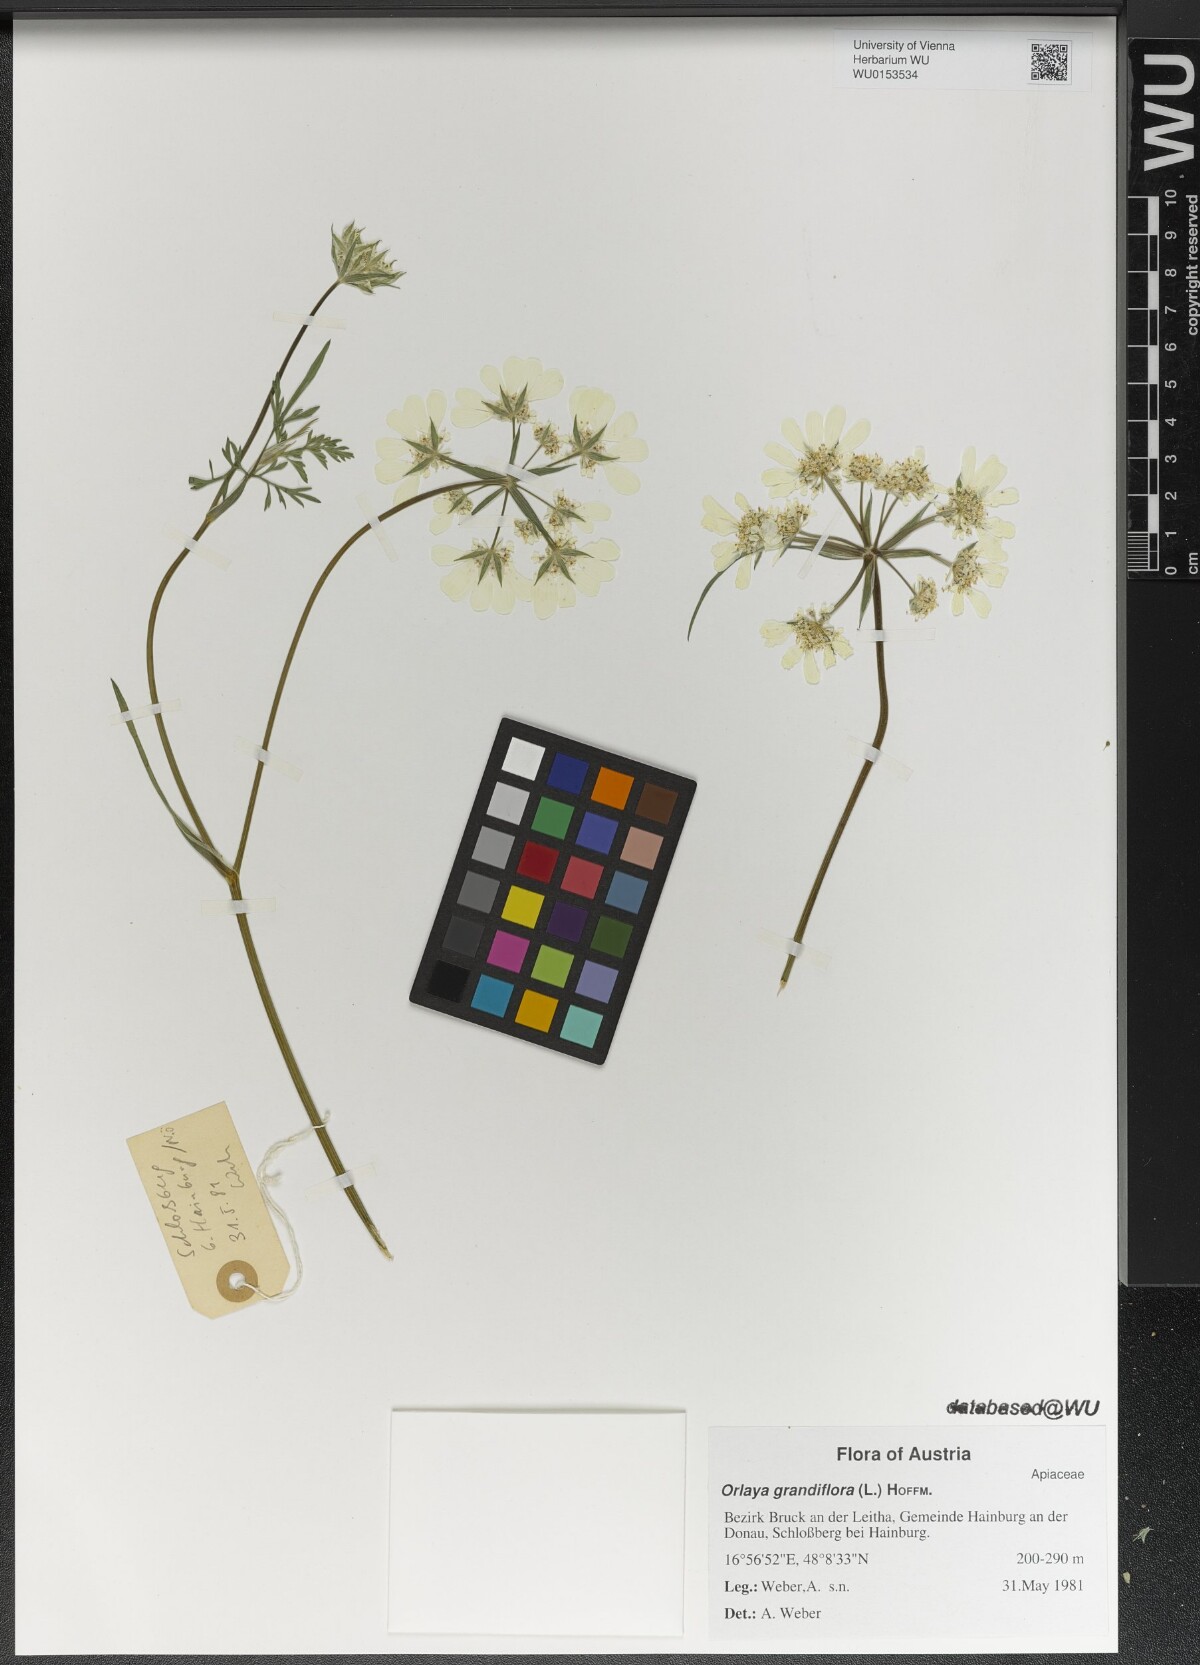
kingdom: Plantae
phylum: Tracheophyta
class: Magnoliopsida
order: Apiales
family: Apiaceae
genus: Orlaya
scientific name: Orlaya grandiflora
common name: White lace flower
